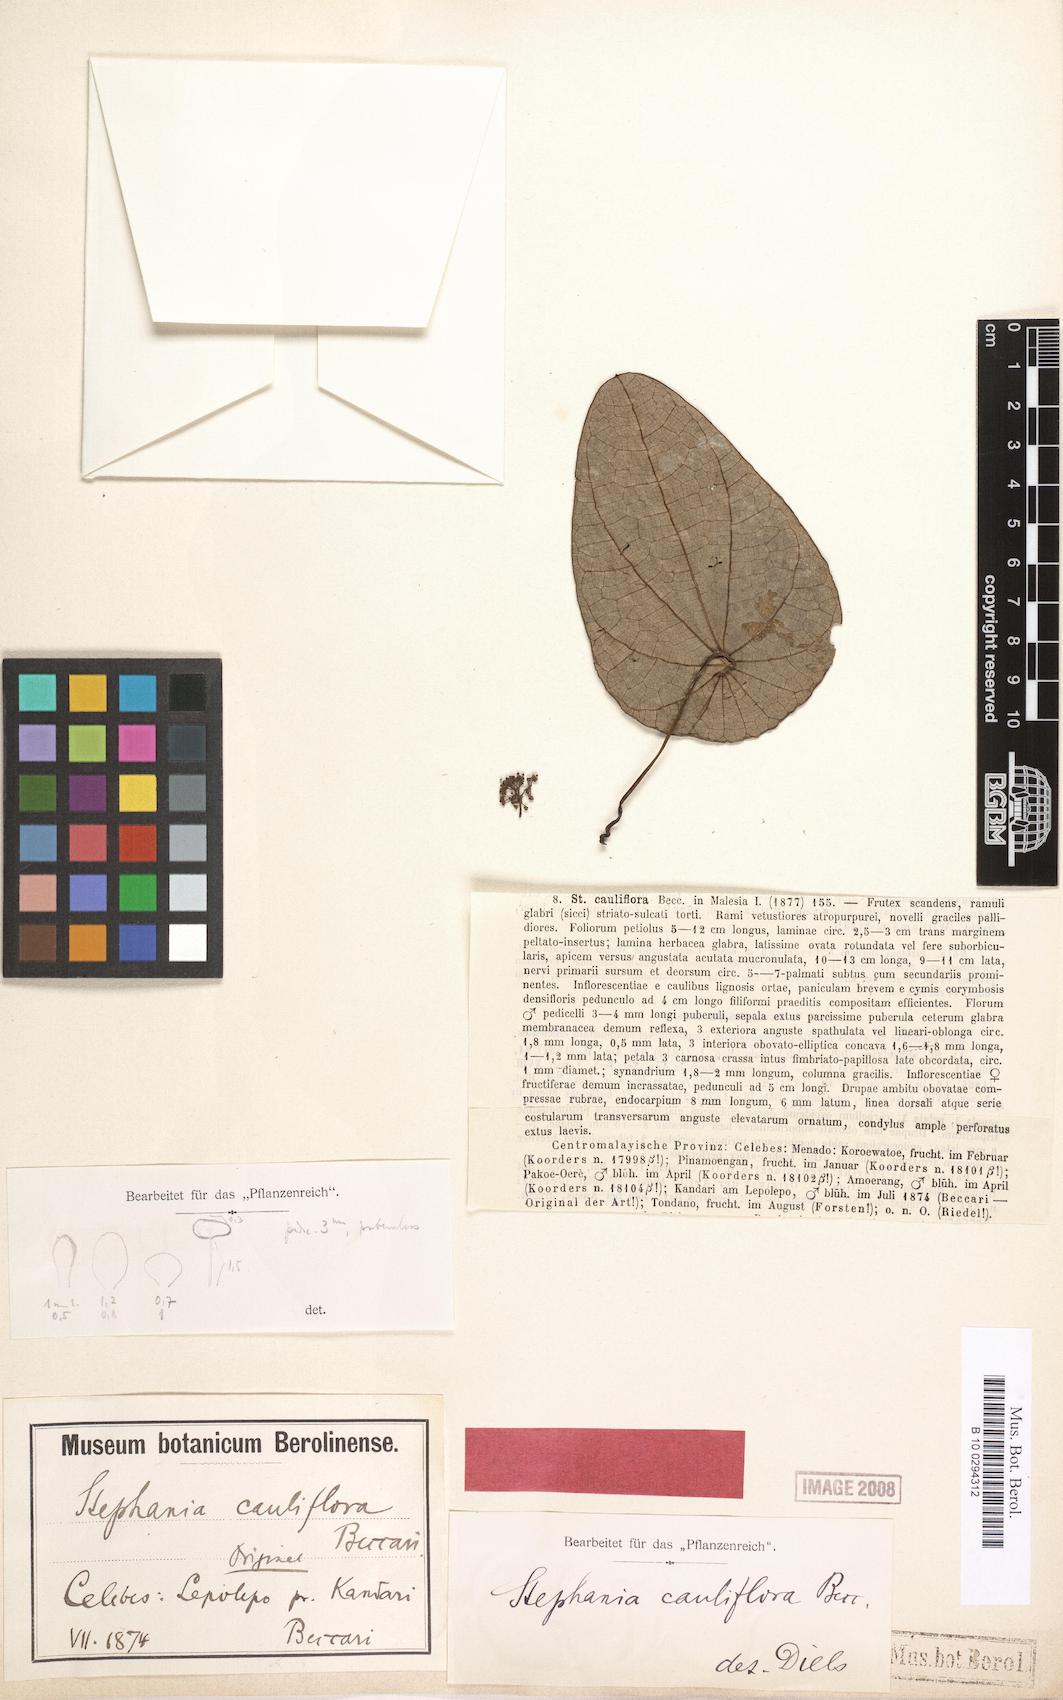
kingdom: Plantae
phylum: Tracheophyta
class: Magnoliopsida
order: Ranunculales
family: Menispermaceae
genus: Stephania
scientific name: Stephania corymbosa
